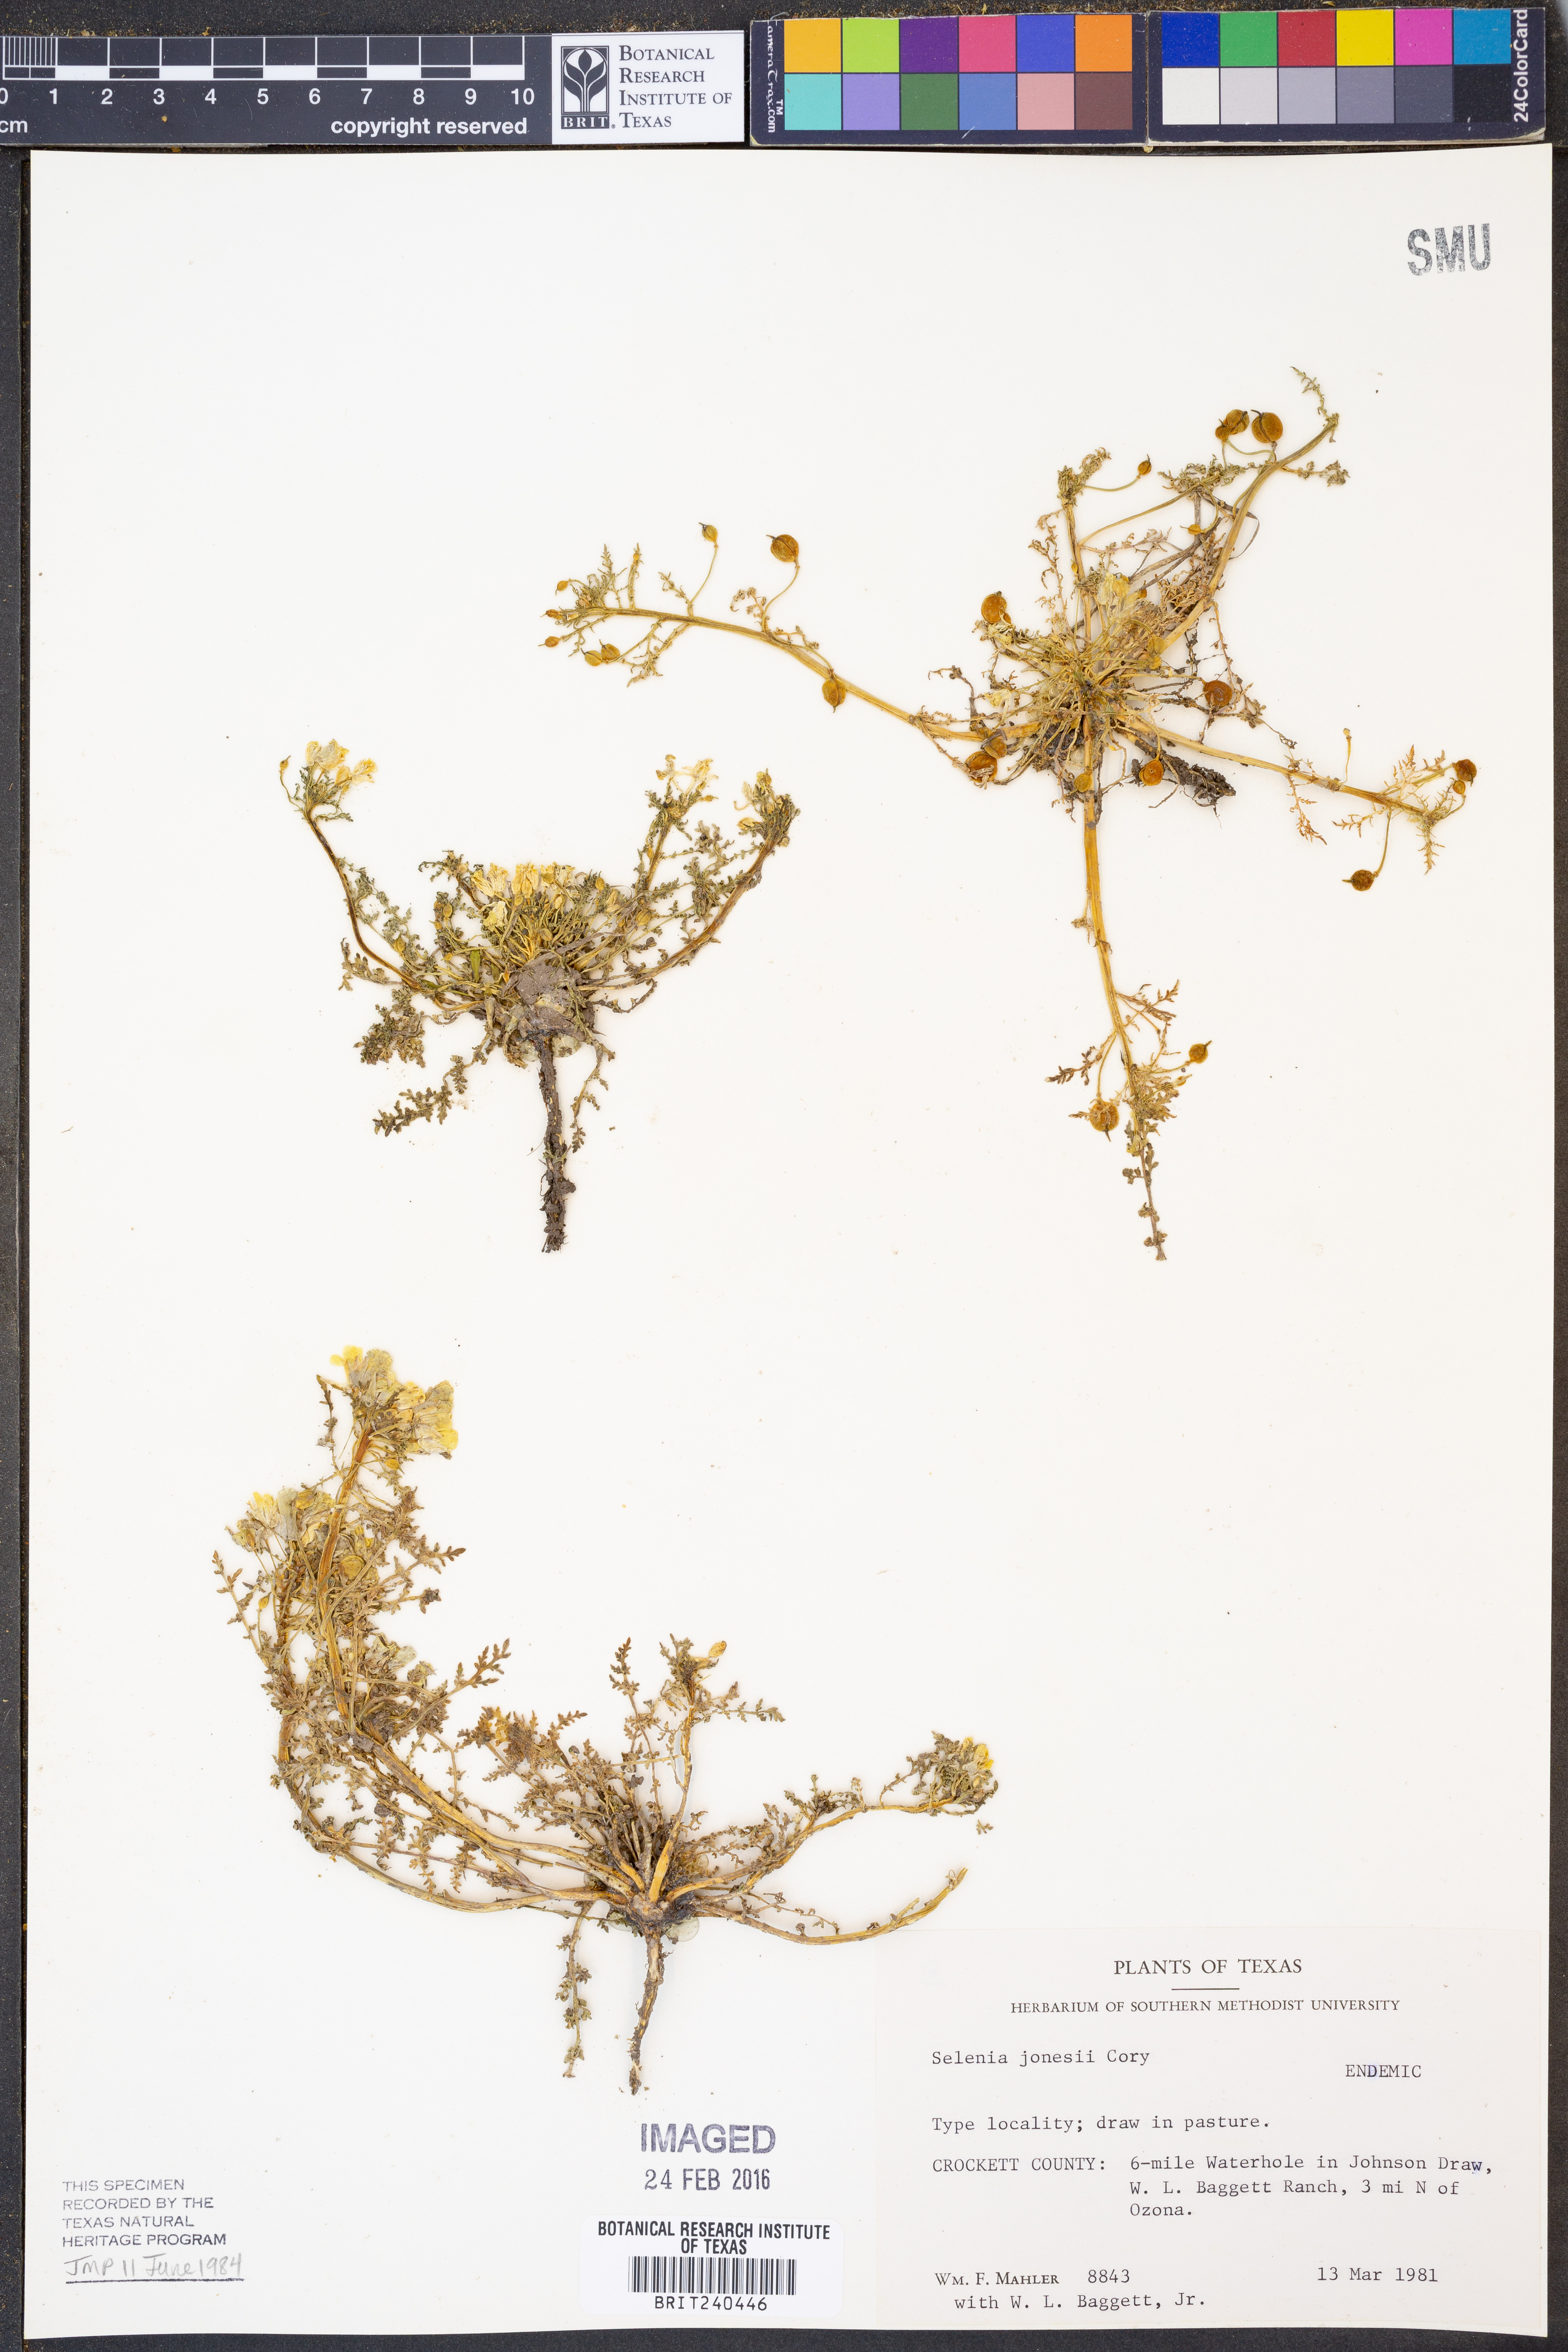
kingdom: Plantae
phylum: Tracheophyta
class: Magnoliopsida
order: Brassicales
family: Brassicaceae
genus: Selenia
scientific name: Selenia jonesii
